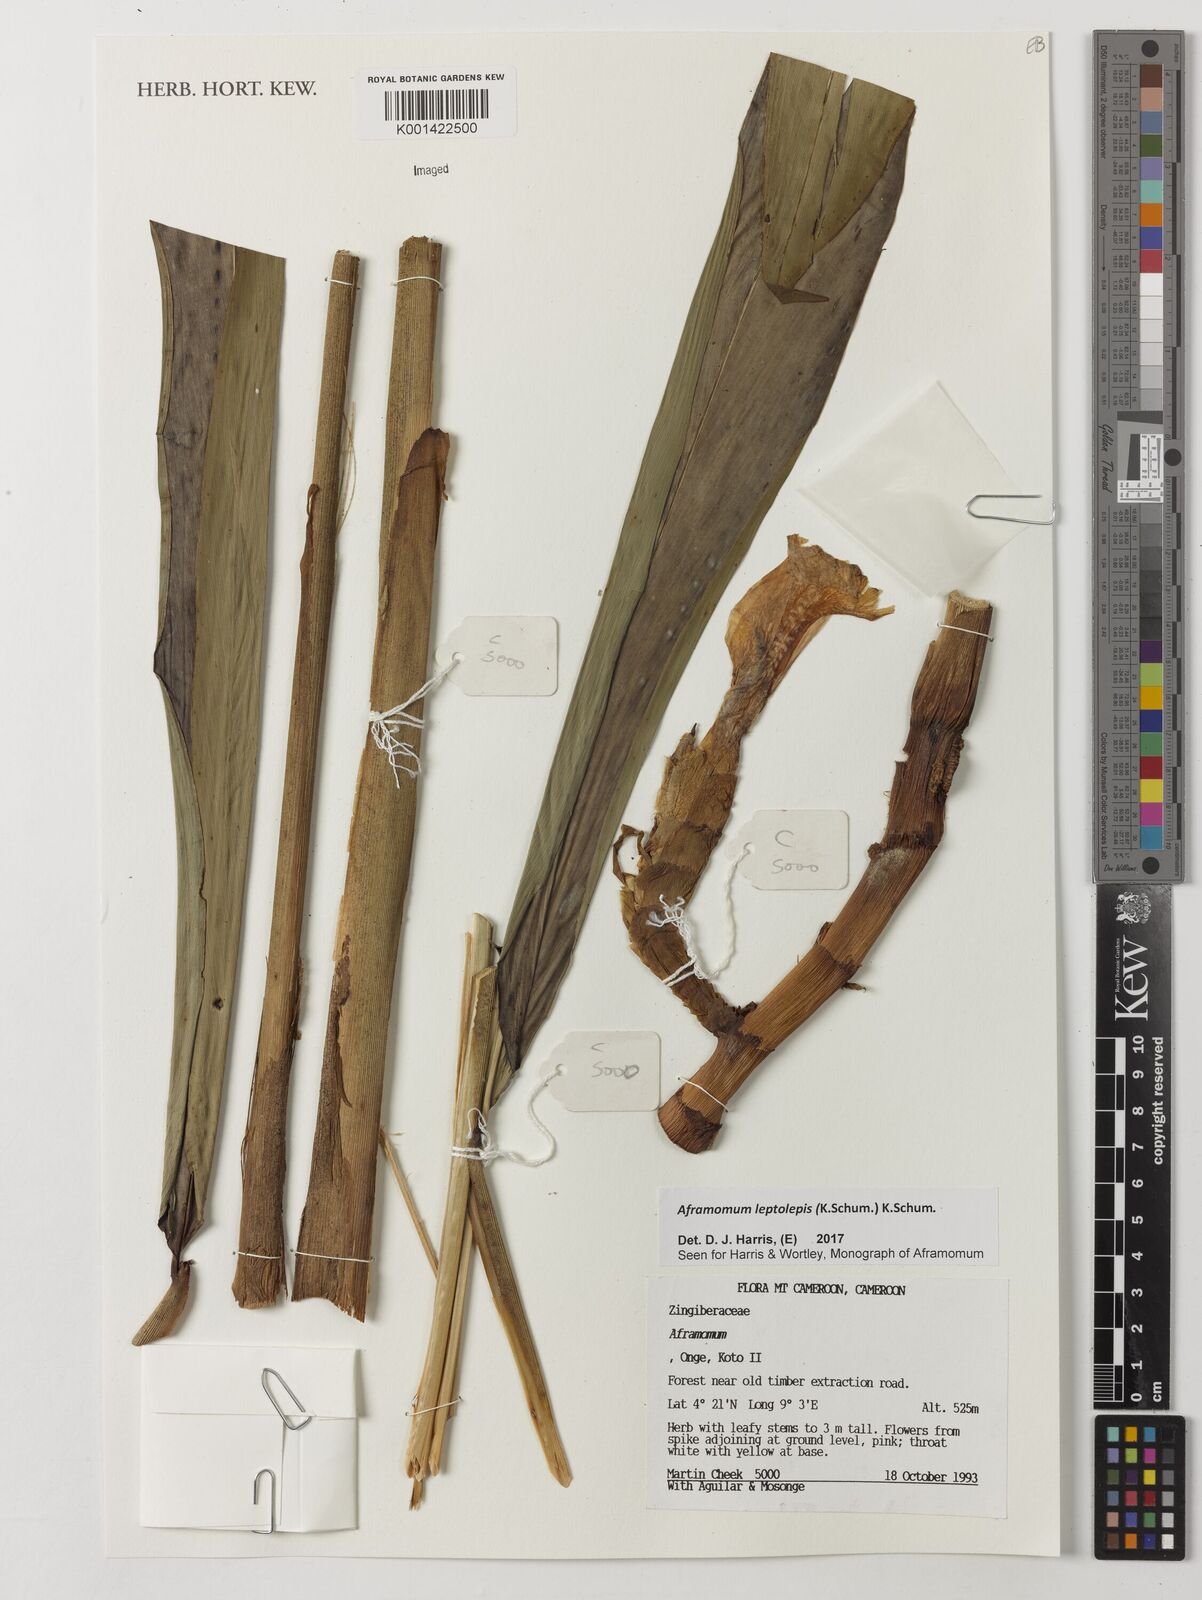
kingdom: Plantae
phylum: Tracheophyta
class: Liliopsida
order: Zingiberales
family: Zingiberaceae
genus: Aframomum
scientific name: Aframomum leptolepis
